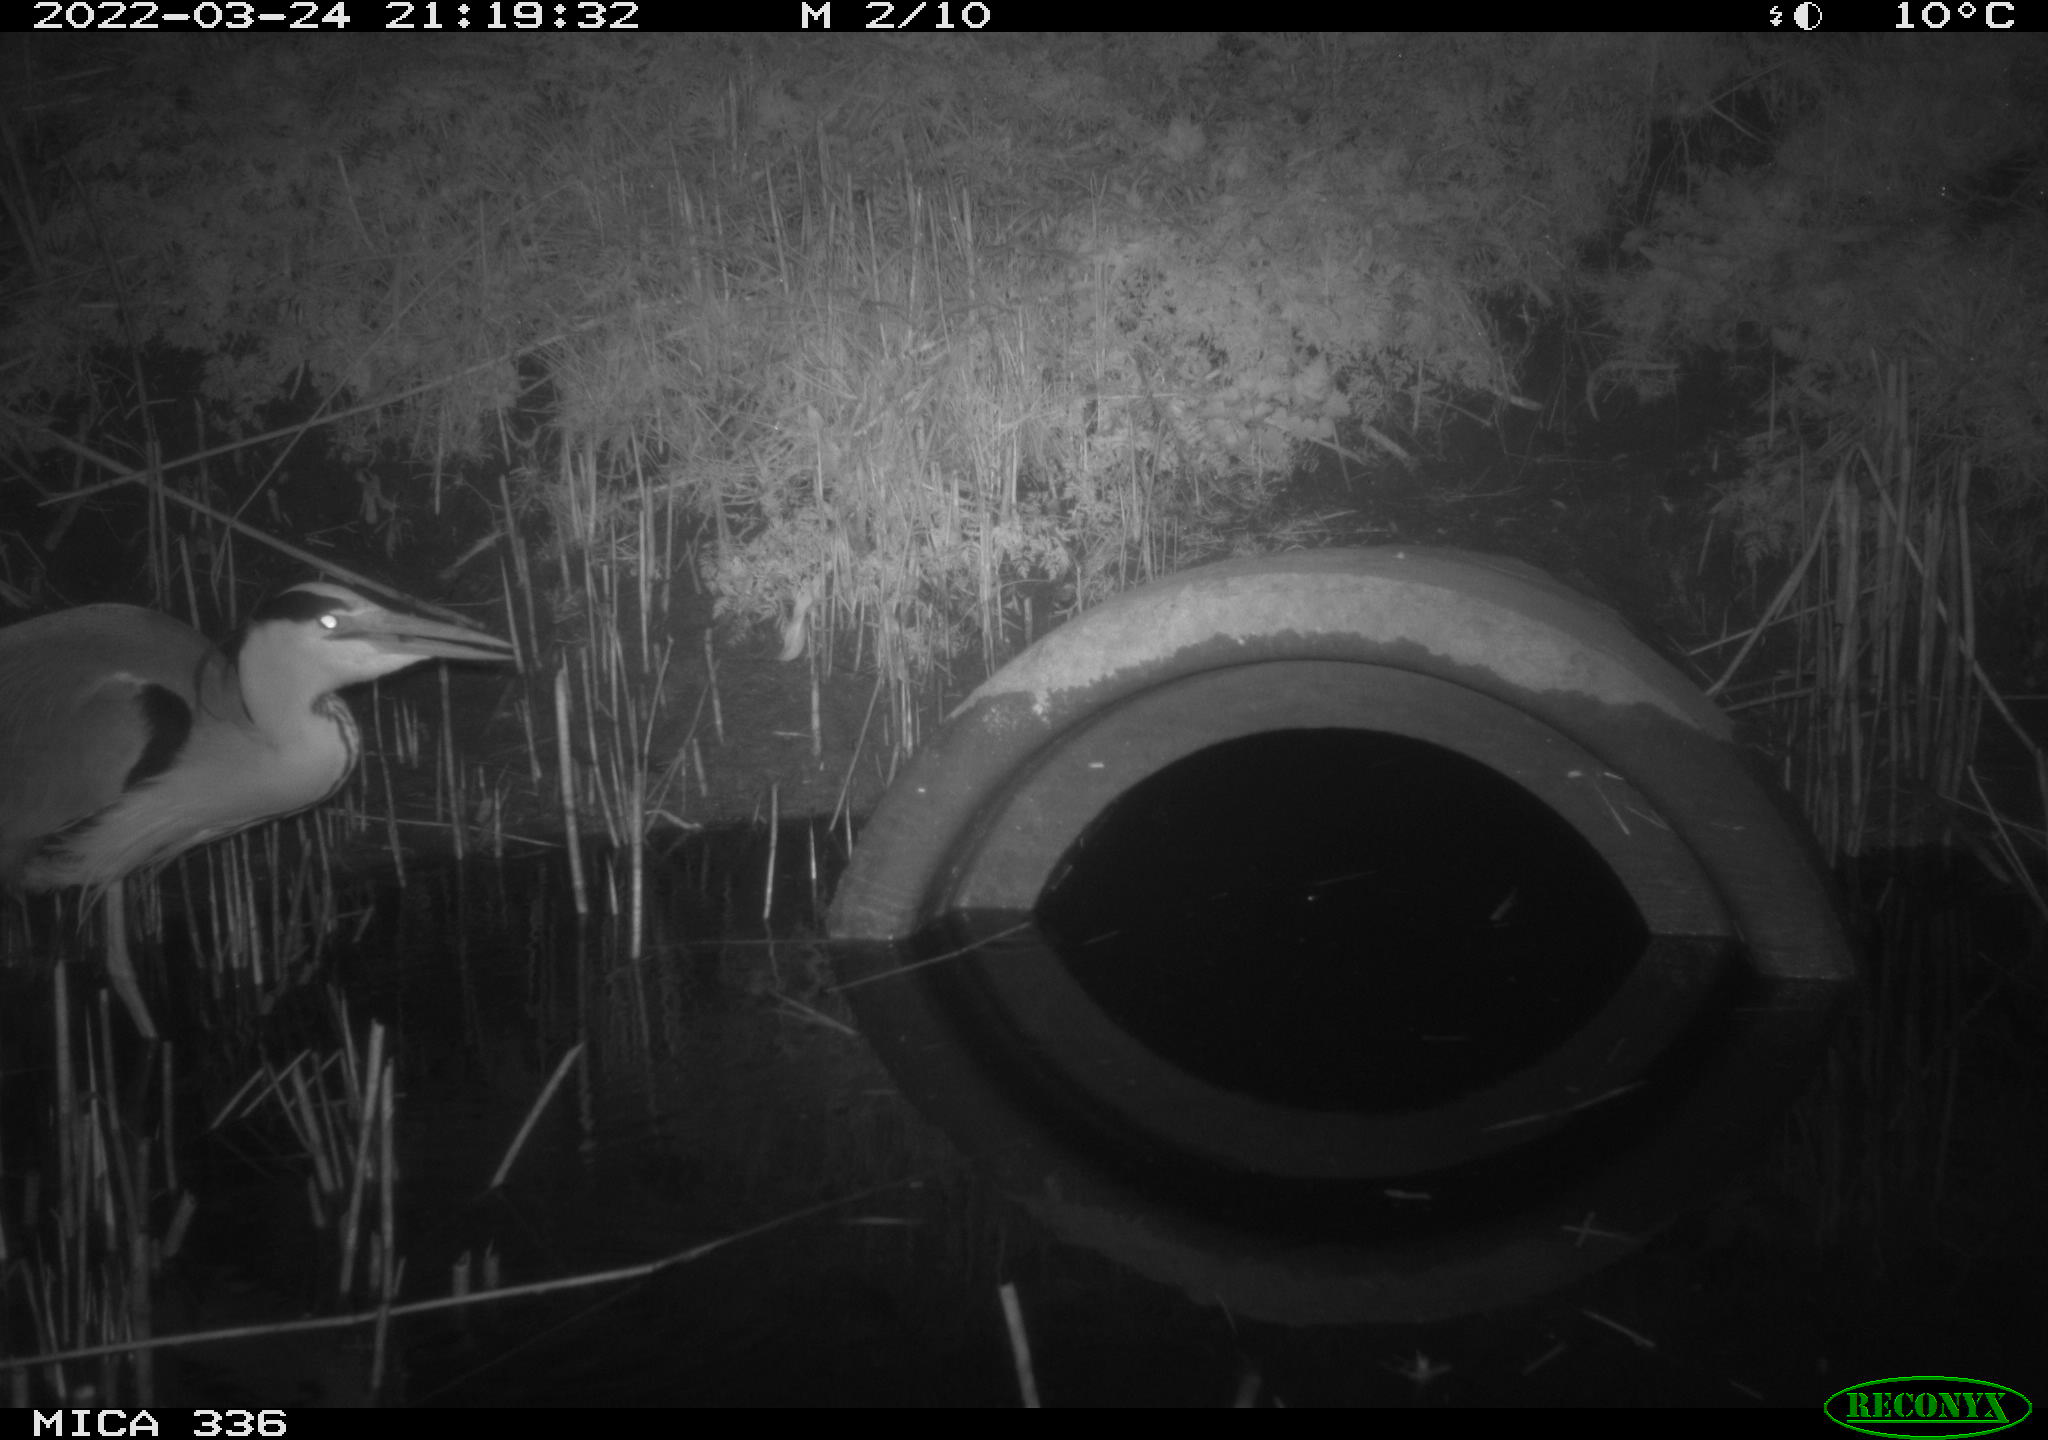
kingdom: Animalia
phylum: Chordata
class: Aves
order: Pelecaniformes
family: Ardeidae
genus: Ardea
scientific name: Ardea cinerea
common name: Grey heron
